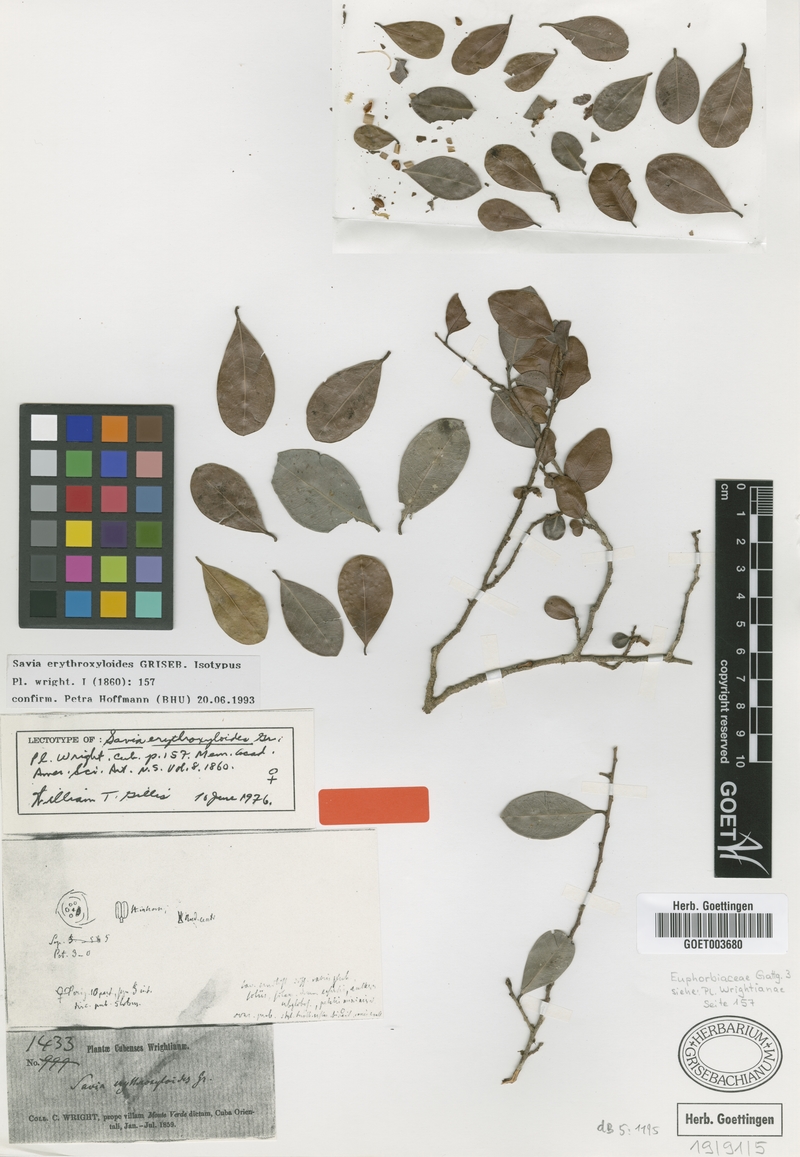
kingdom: Plantae
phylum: Tracheophyta
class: Magnoliopsida
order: Malpighiales
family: Phyllanthaceae
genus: Heterosavia
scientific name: Heterosavia erythroxyloides
